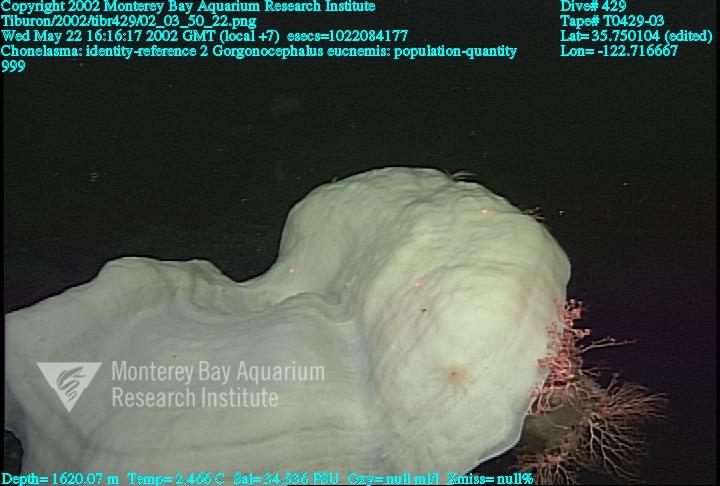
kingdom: Animalia
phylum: Porifera
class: Hexactinellida
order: Sceptrulophora
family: Euretidae
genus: Chonelasma
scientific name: Chonelasma
